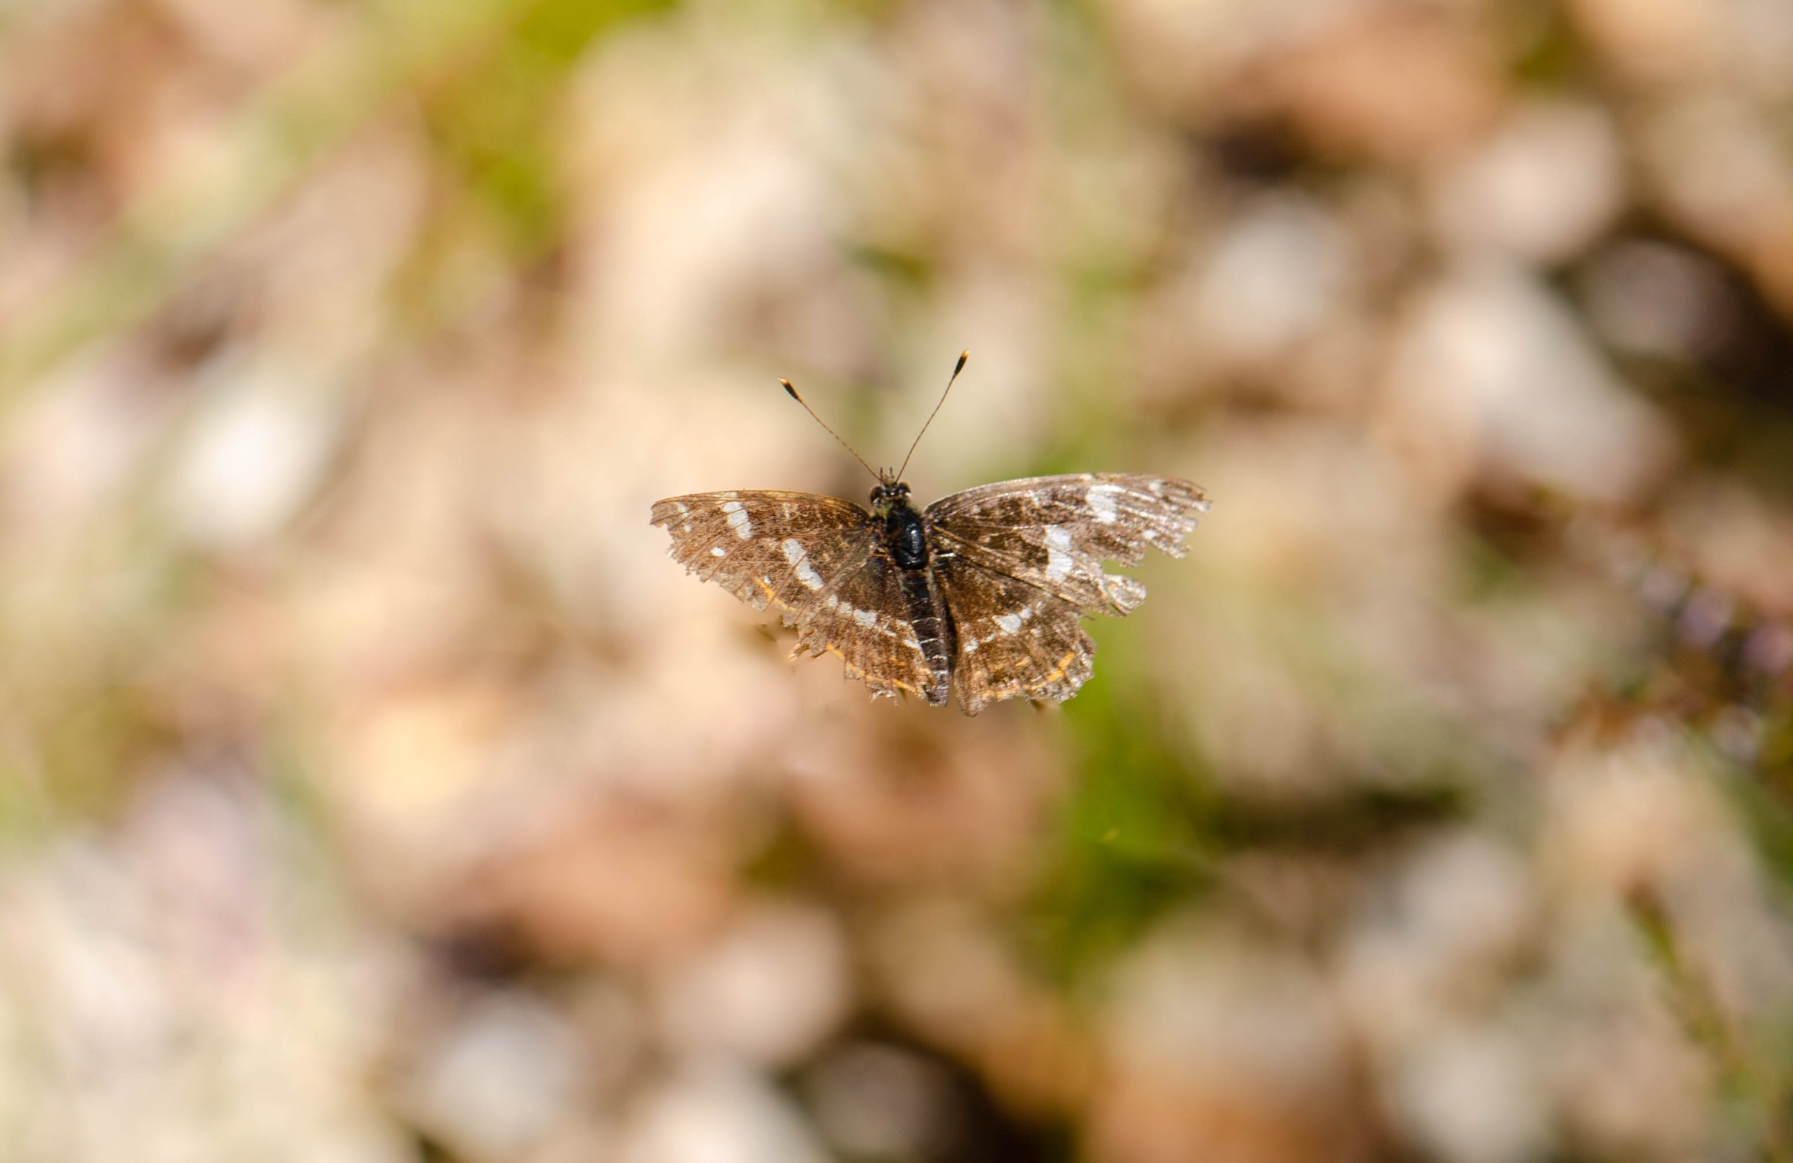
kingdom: Animalia
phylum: Arthropoda
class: Insecta
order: Lepidoptera
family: Nymphalidae
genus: Araschnia
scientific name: Araschnia levana
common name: Nældesommerfugl
